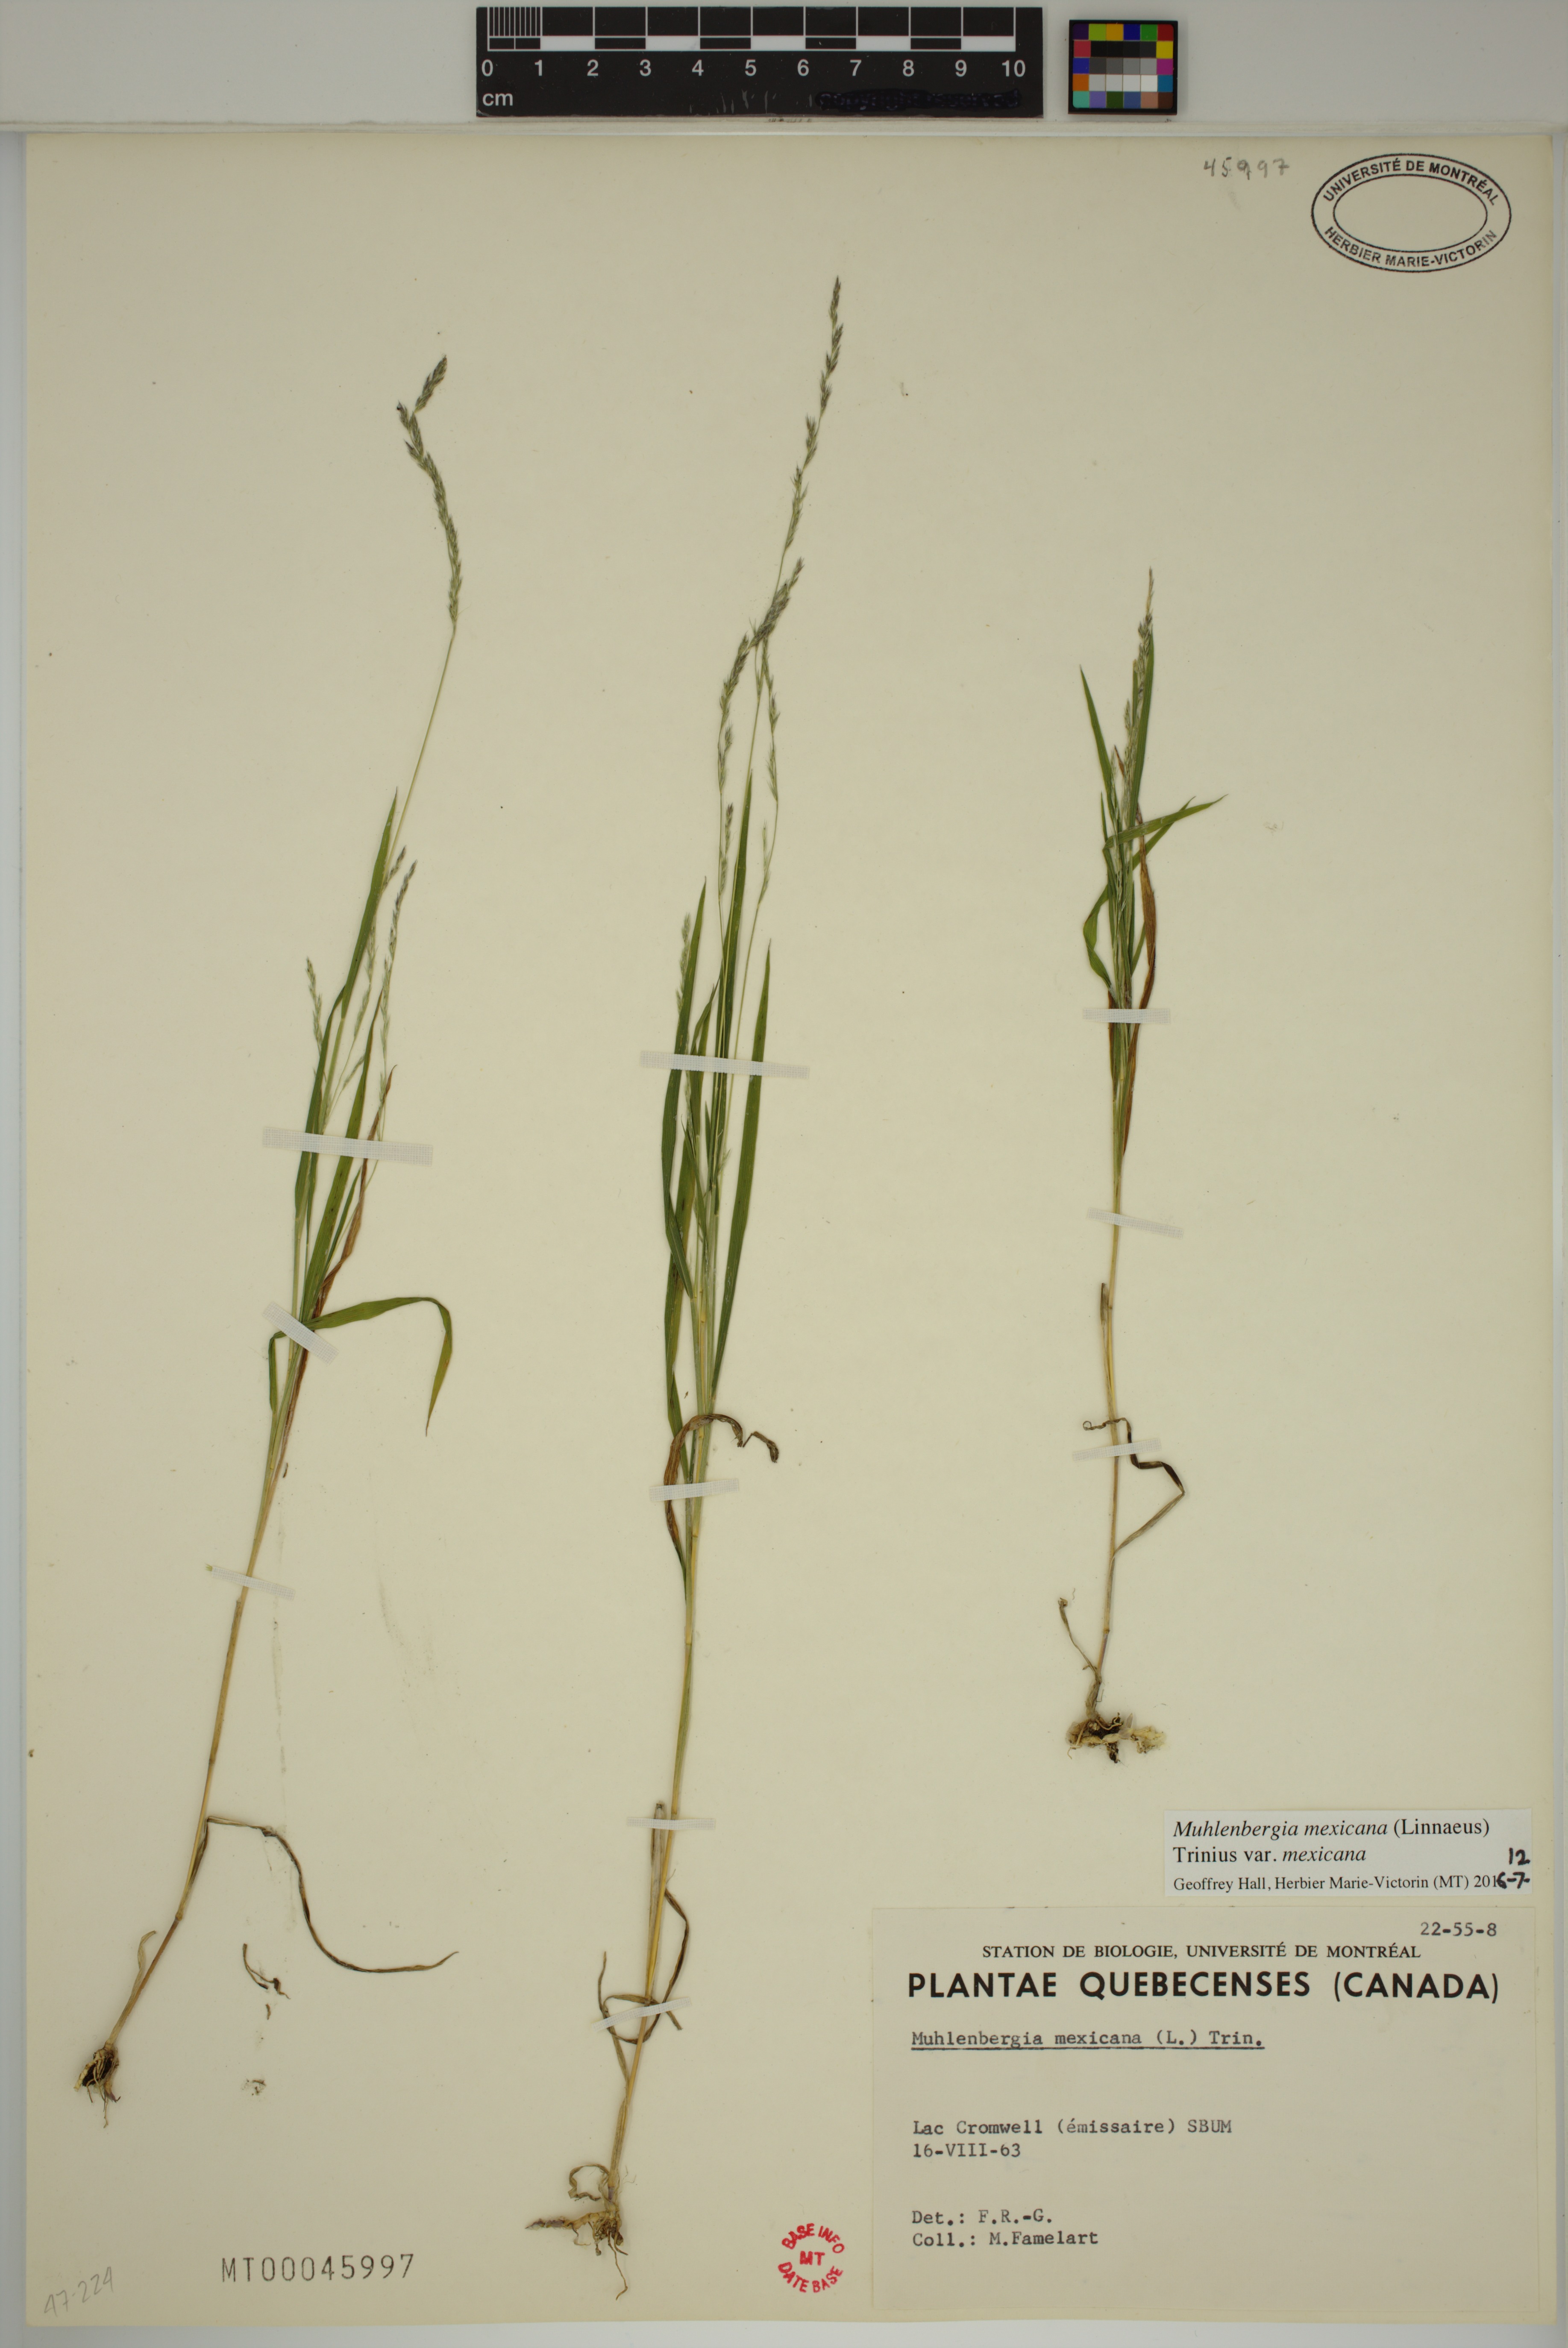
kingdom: Plantae
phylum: Tracheophyta
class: Liliopsida
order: Poales
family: Poaceae
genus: Muhlenbergia
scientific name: Muhlenbergia mexicana
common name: Mexican muhly
